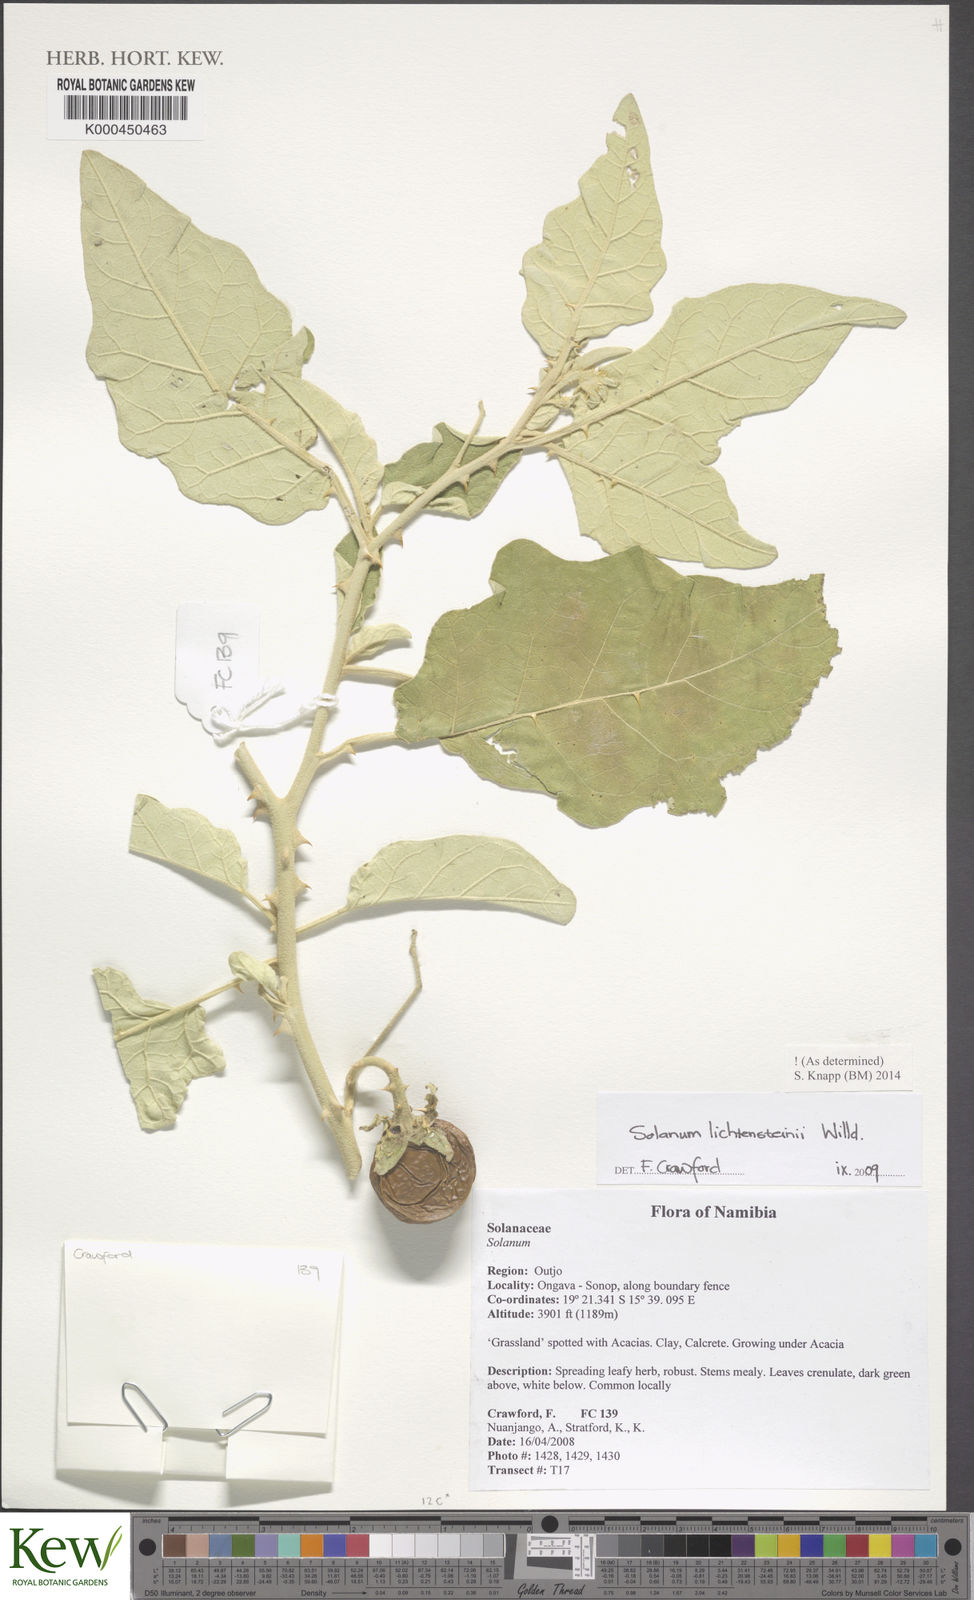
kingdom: Plantae
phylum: Tracheophyta
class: Magnoliopsida
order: Solanales
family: Solanaceae
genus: Solanum
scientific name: Solanum lichtensteinii
